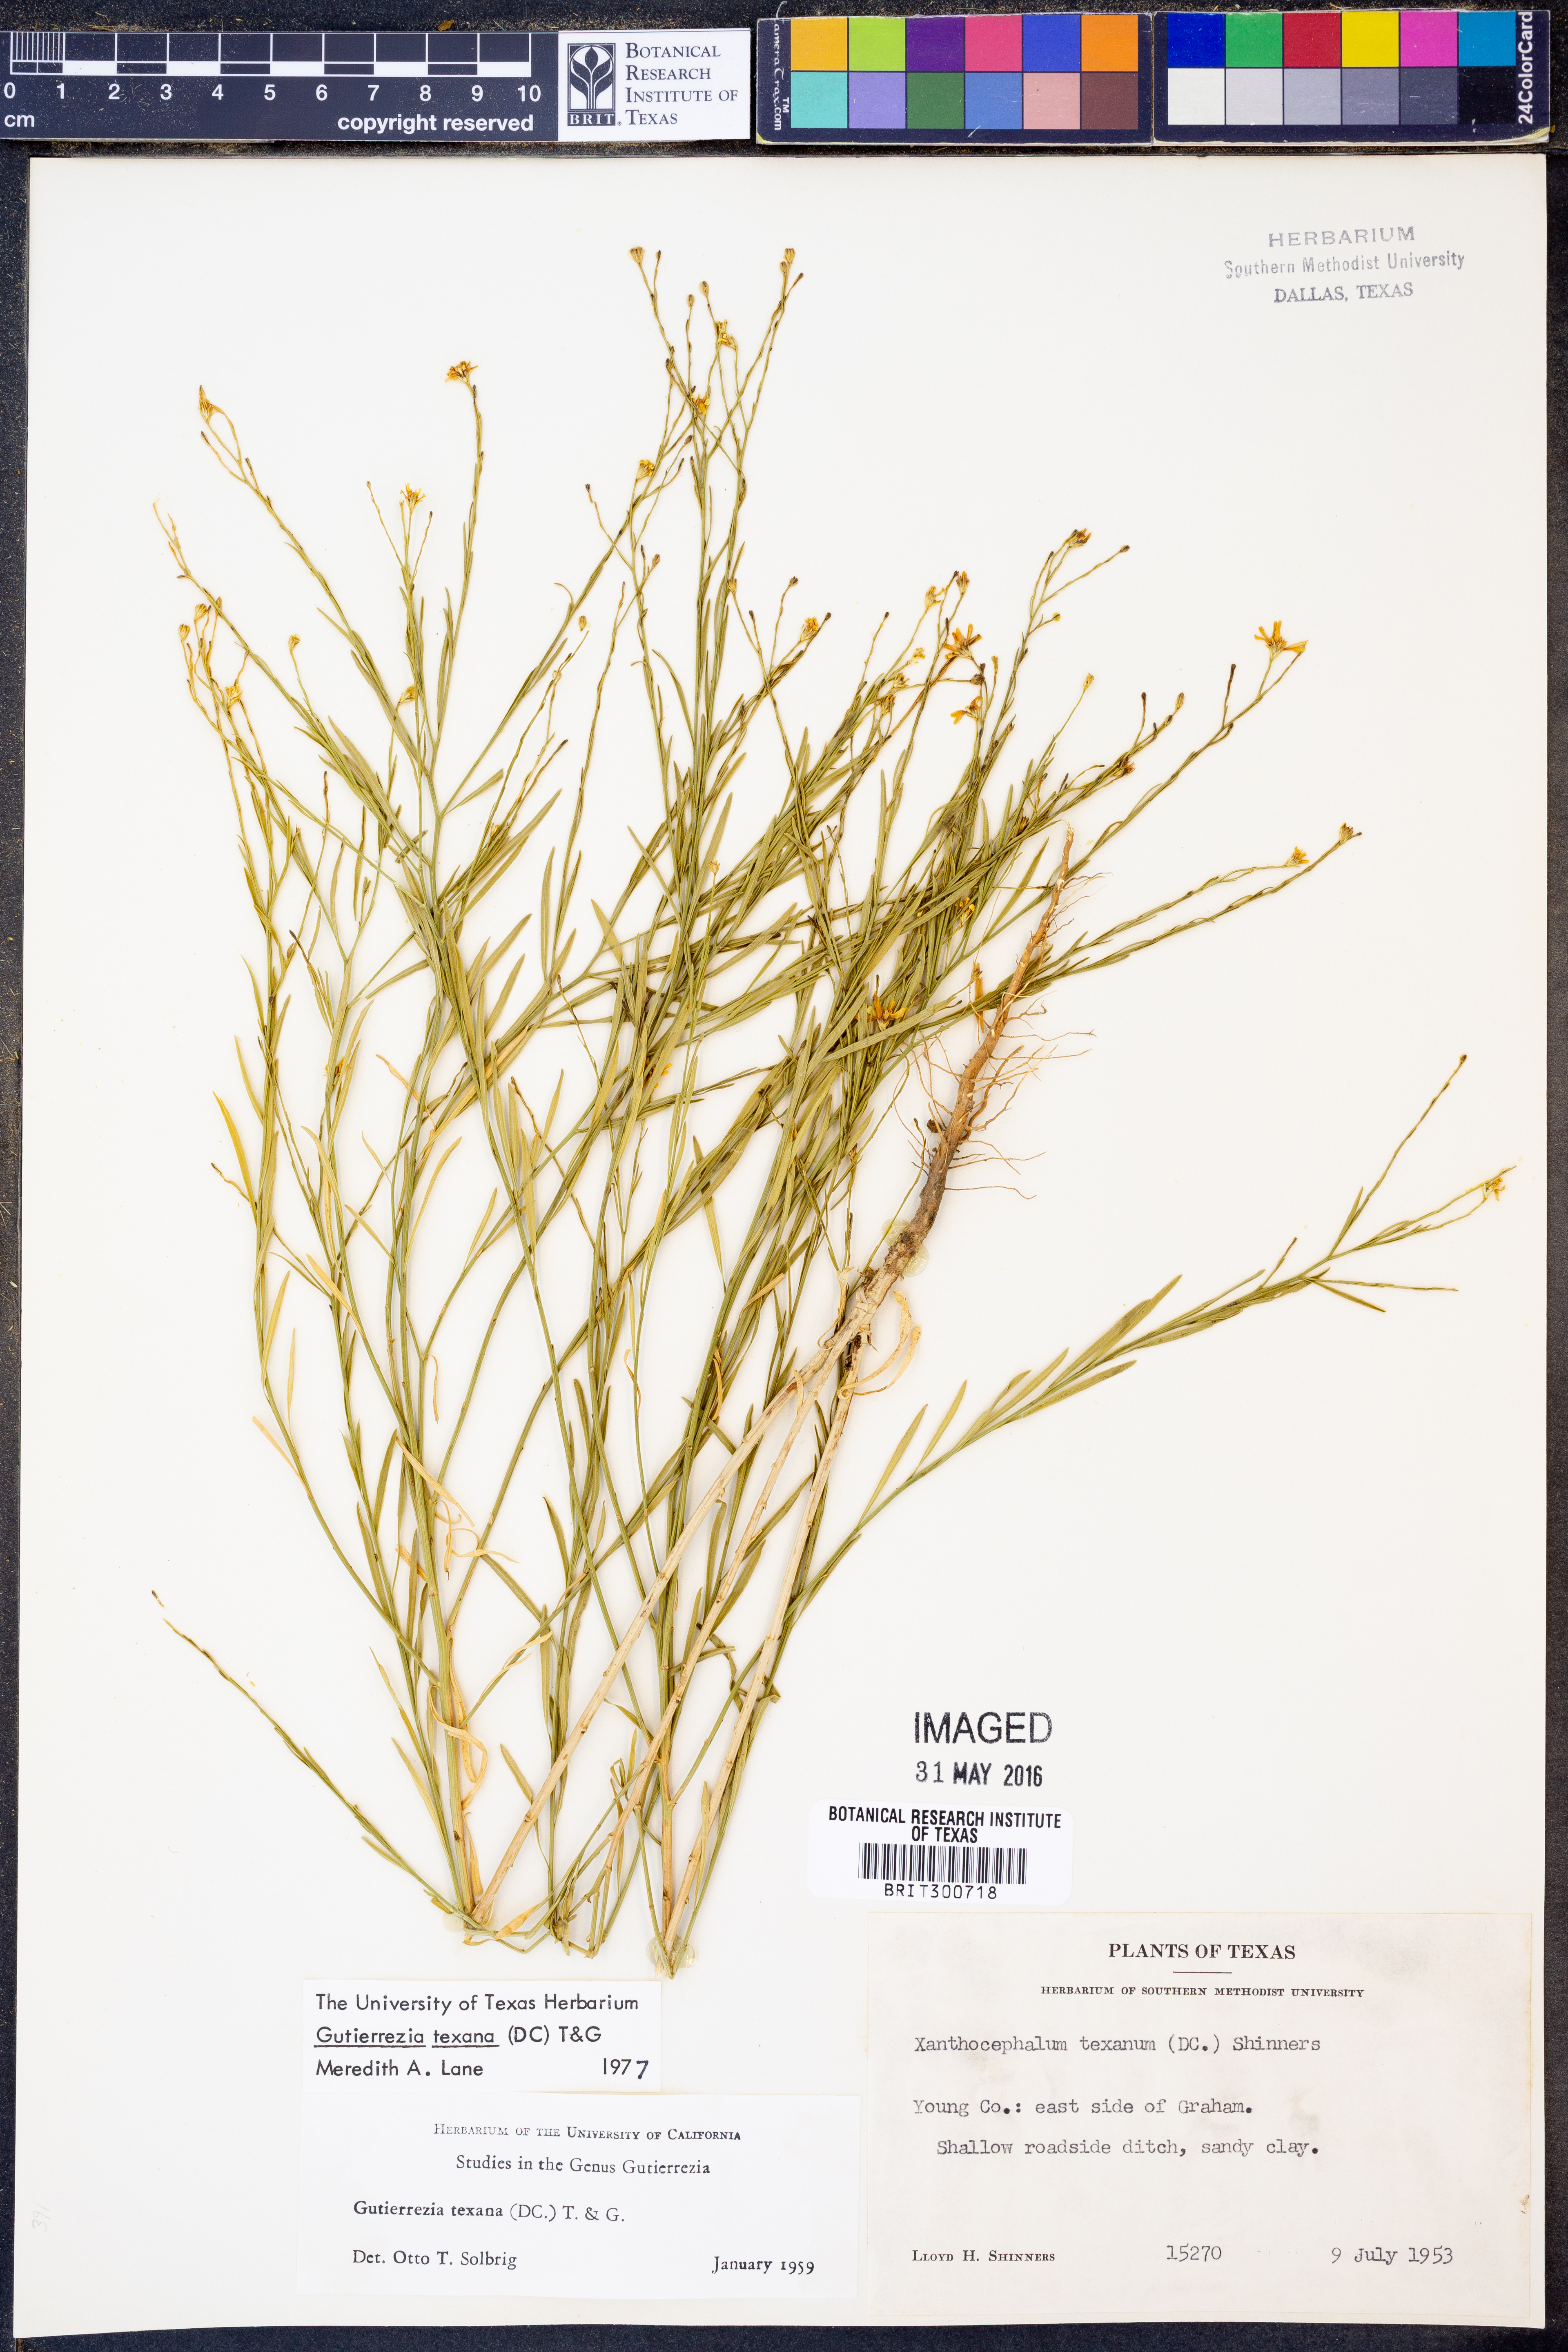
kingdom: Plantae
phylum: Tracheophyta
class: Magnoliopsida
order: Asterales
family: Asteraceae
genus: Gutierrezia
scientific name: Gutierrezia texana
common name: Texas snakeweed
